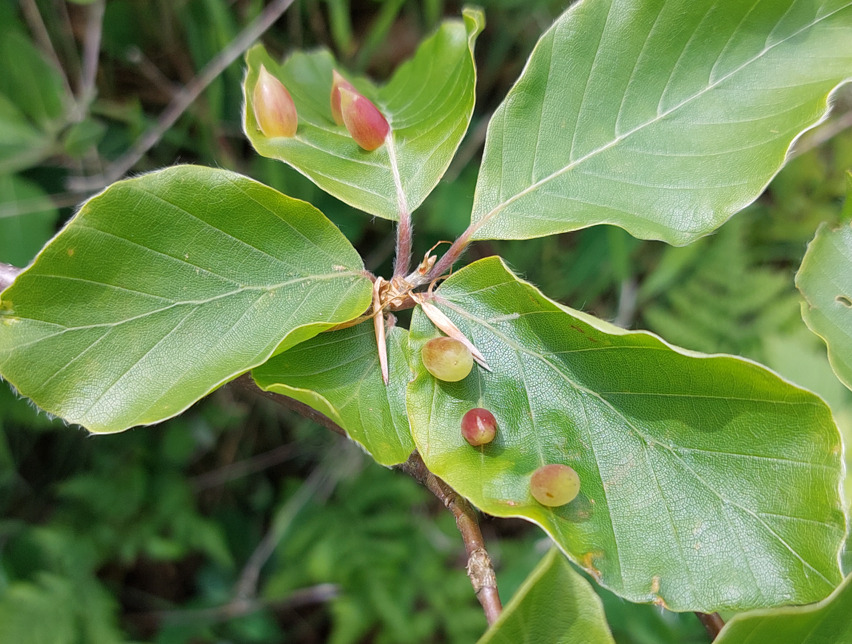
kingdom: Animalia
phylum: Arthropoda
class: Insecta
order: Diptera
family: Cecidomyiidae
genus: Mikiola
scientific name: Mikiola fagi
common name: Bøgegalmyg
